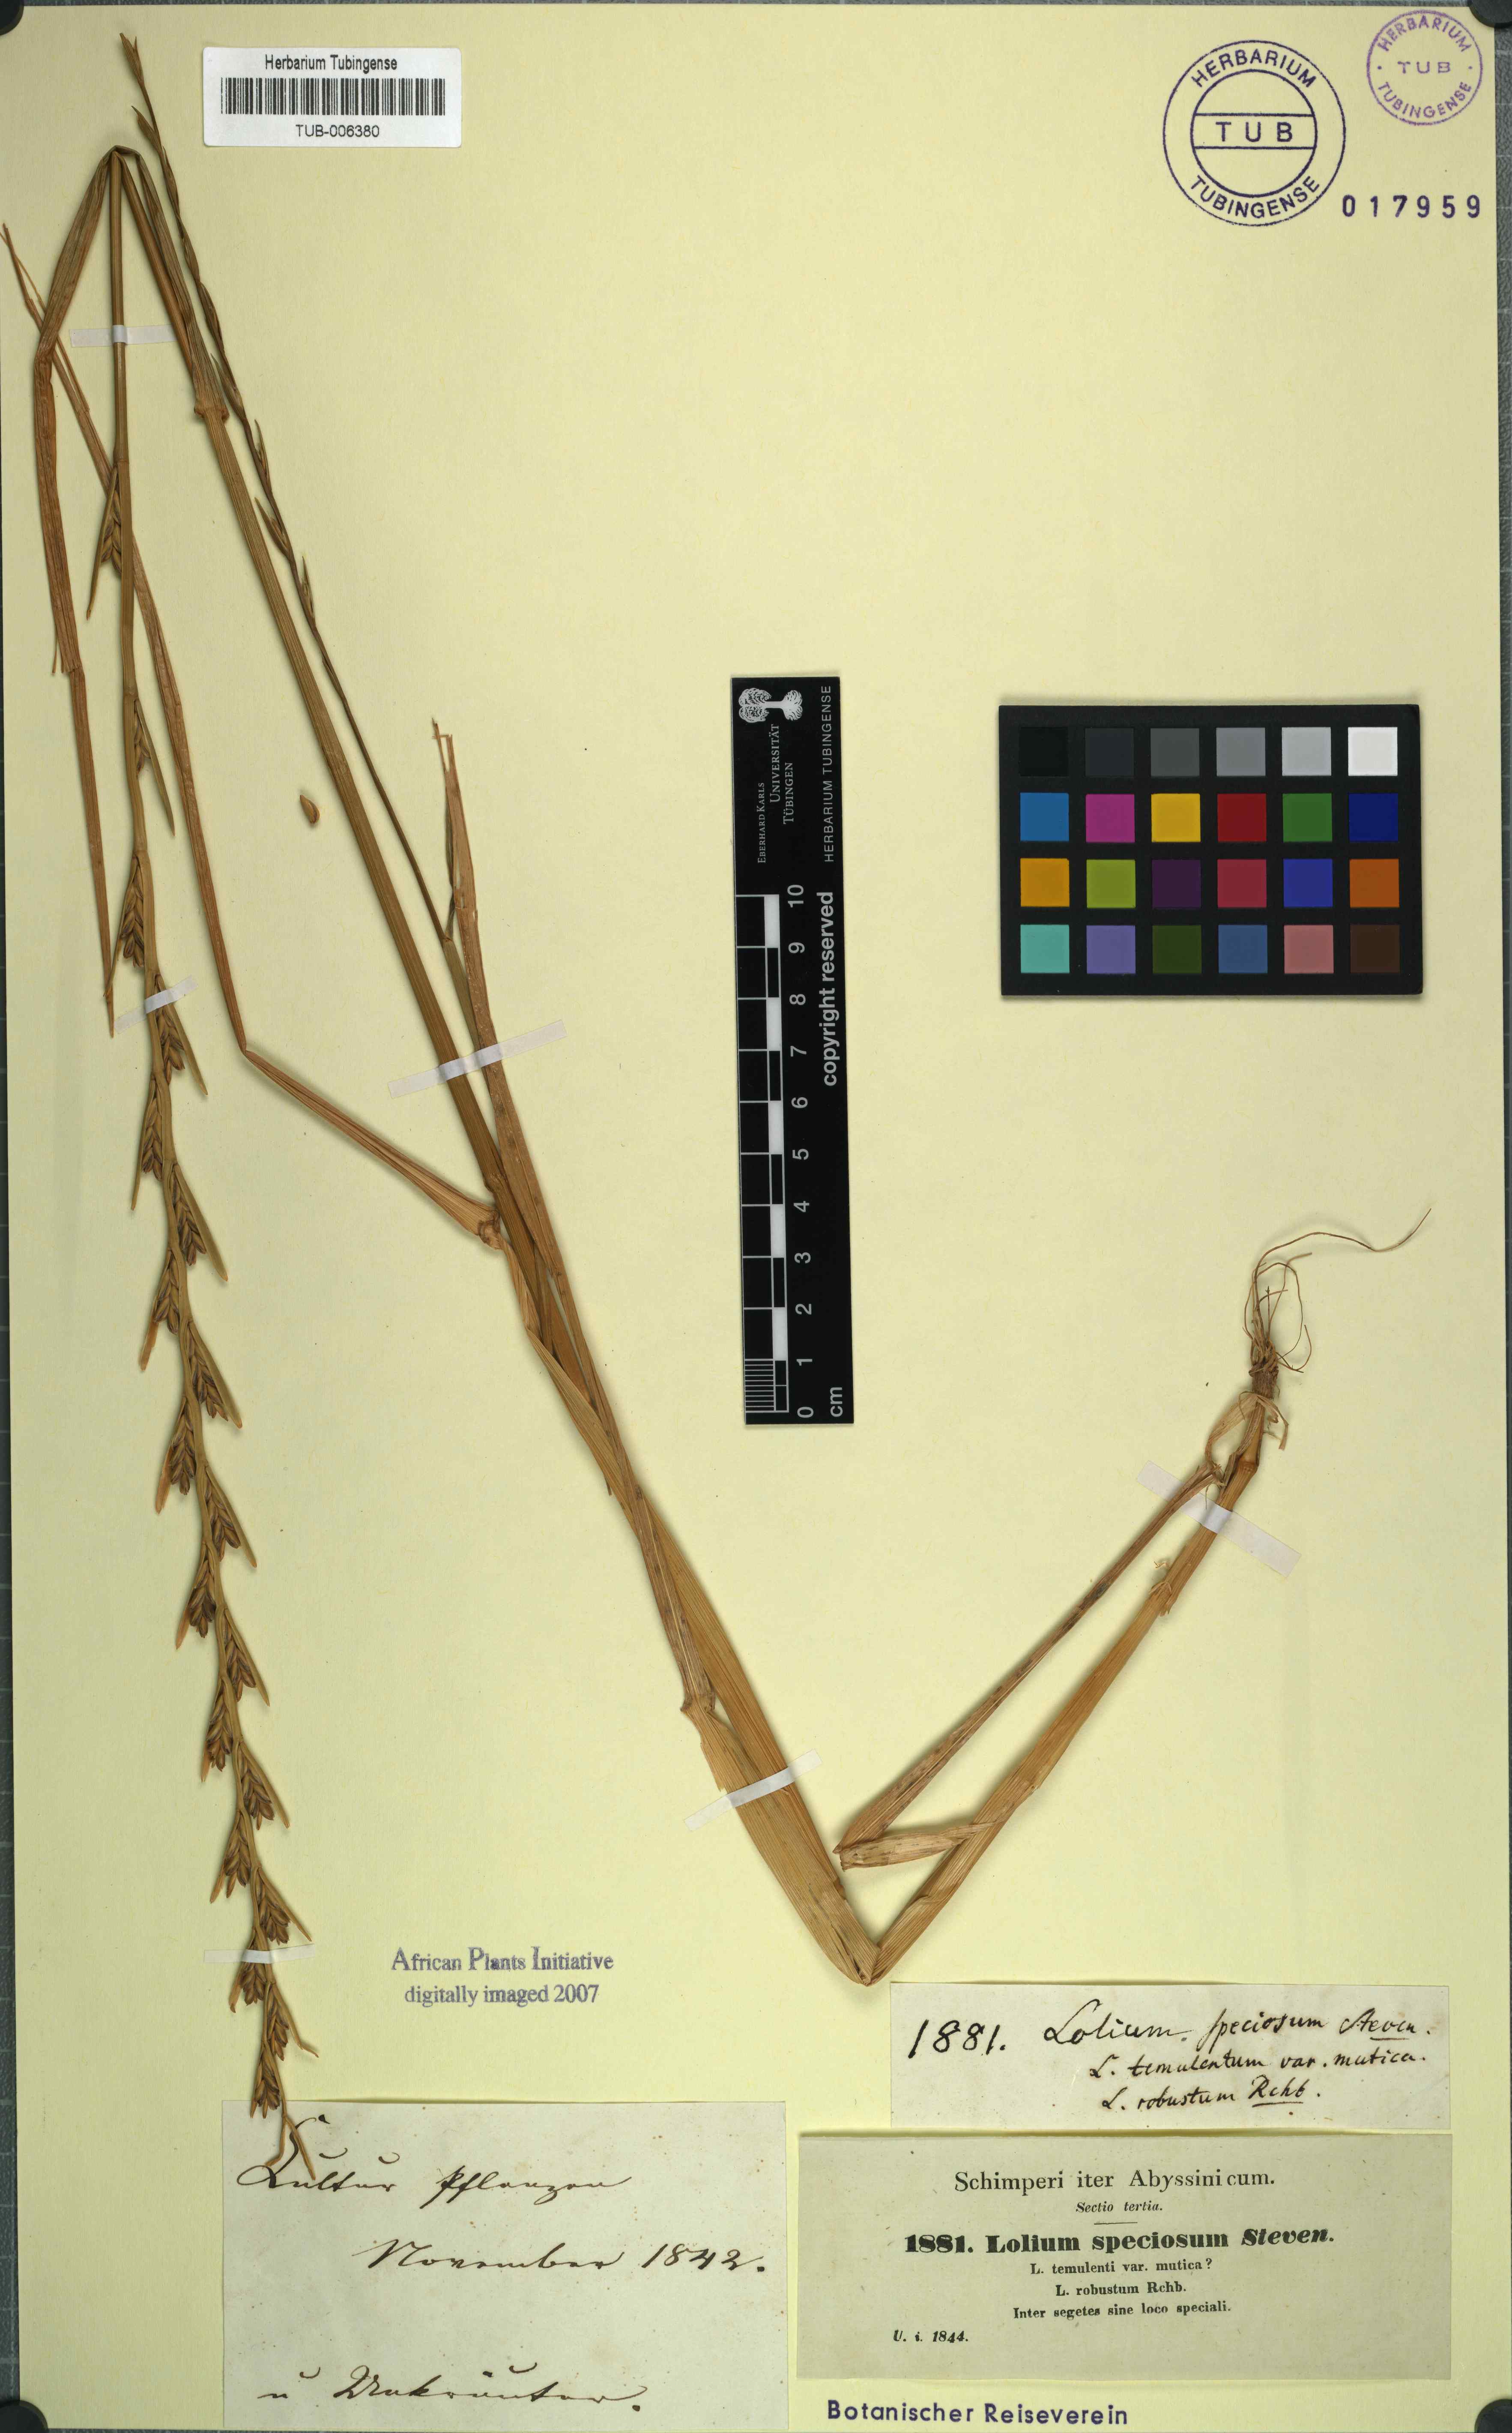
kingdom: Plantae
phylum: Tracheophyta
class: Liliopsida
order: Poales
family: Poaceae
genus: Lolium
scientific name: Lolium temulentum
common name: Darnel
